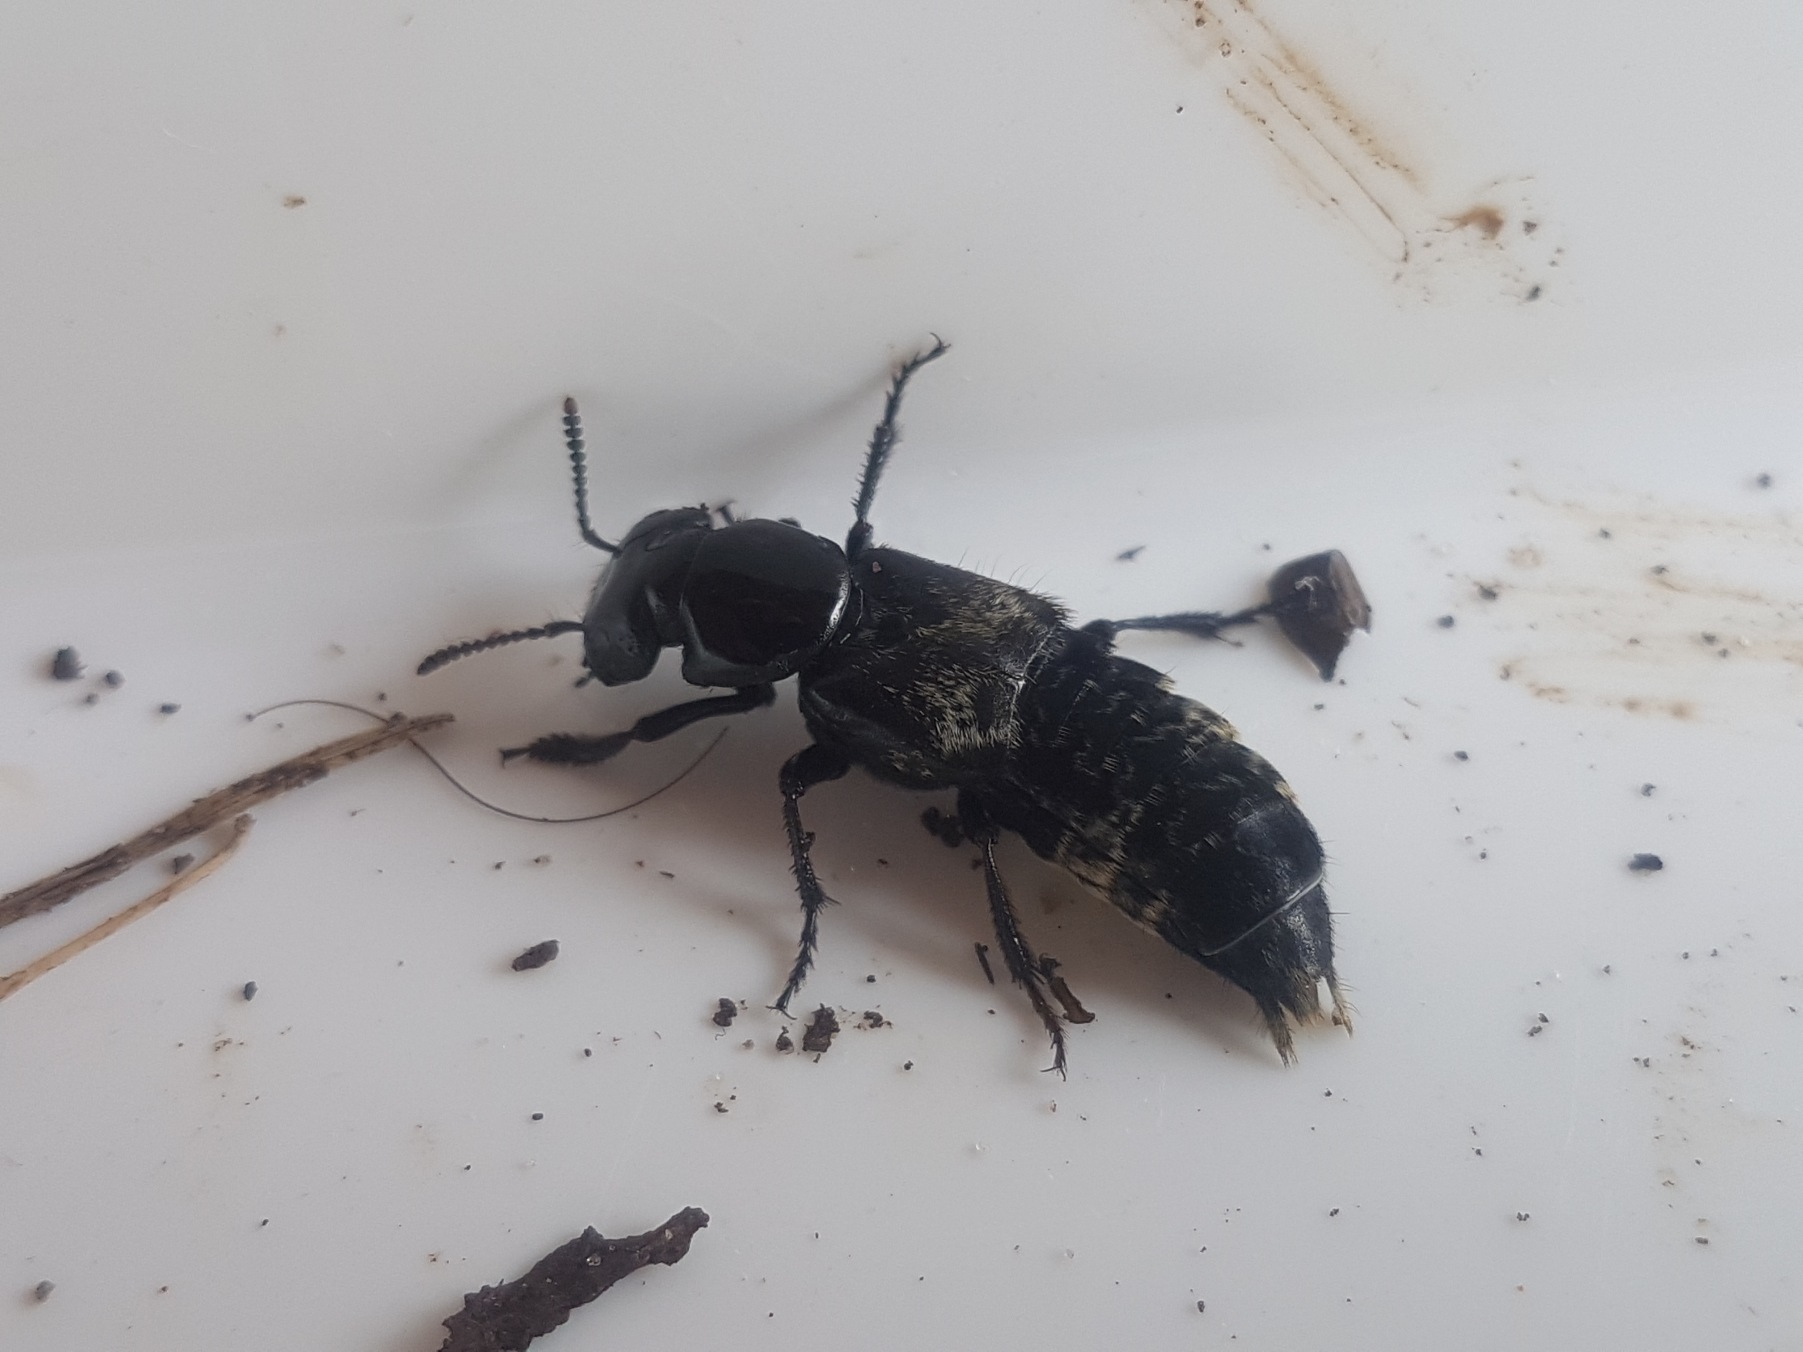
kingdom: Animalia
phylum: Arthropoda
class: Insecta
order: Coleoptera
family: Staphylinidae
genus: Creophilus
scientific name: Creophilus maxillosus
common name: Skrækrovbille
